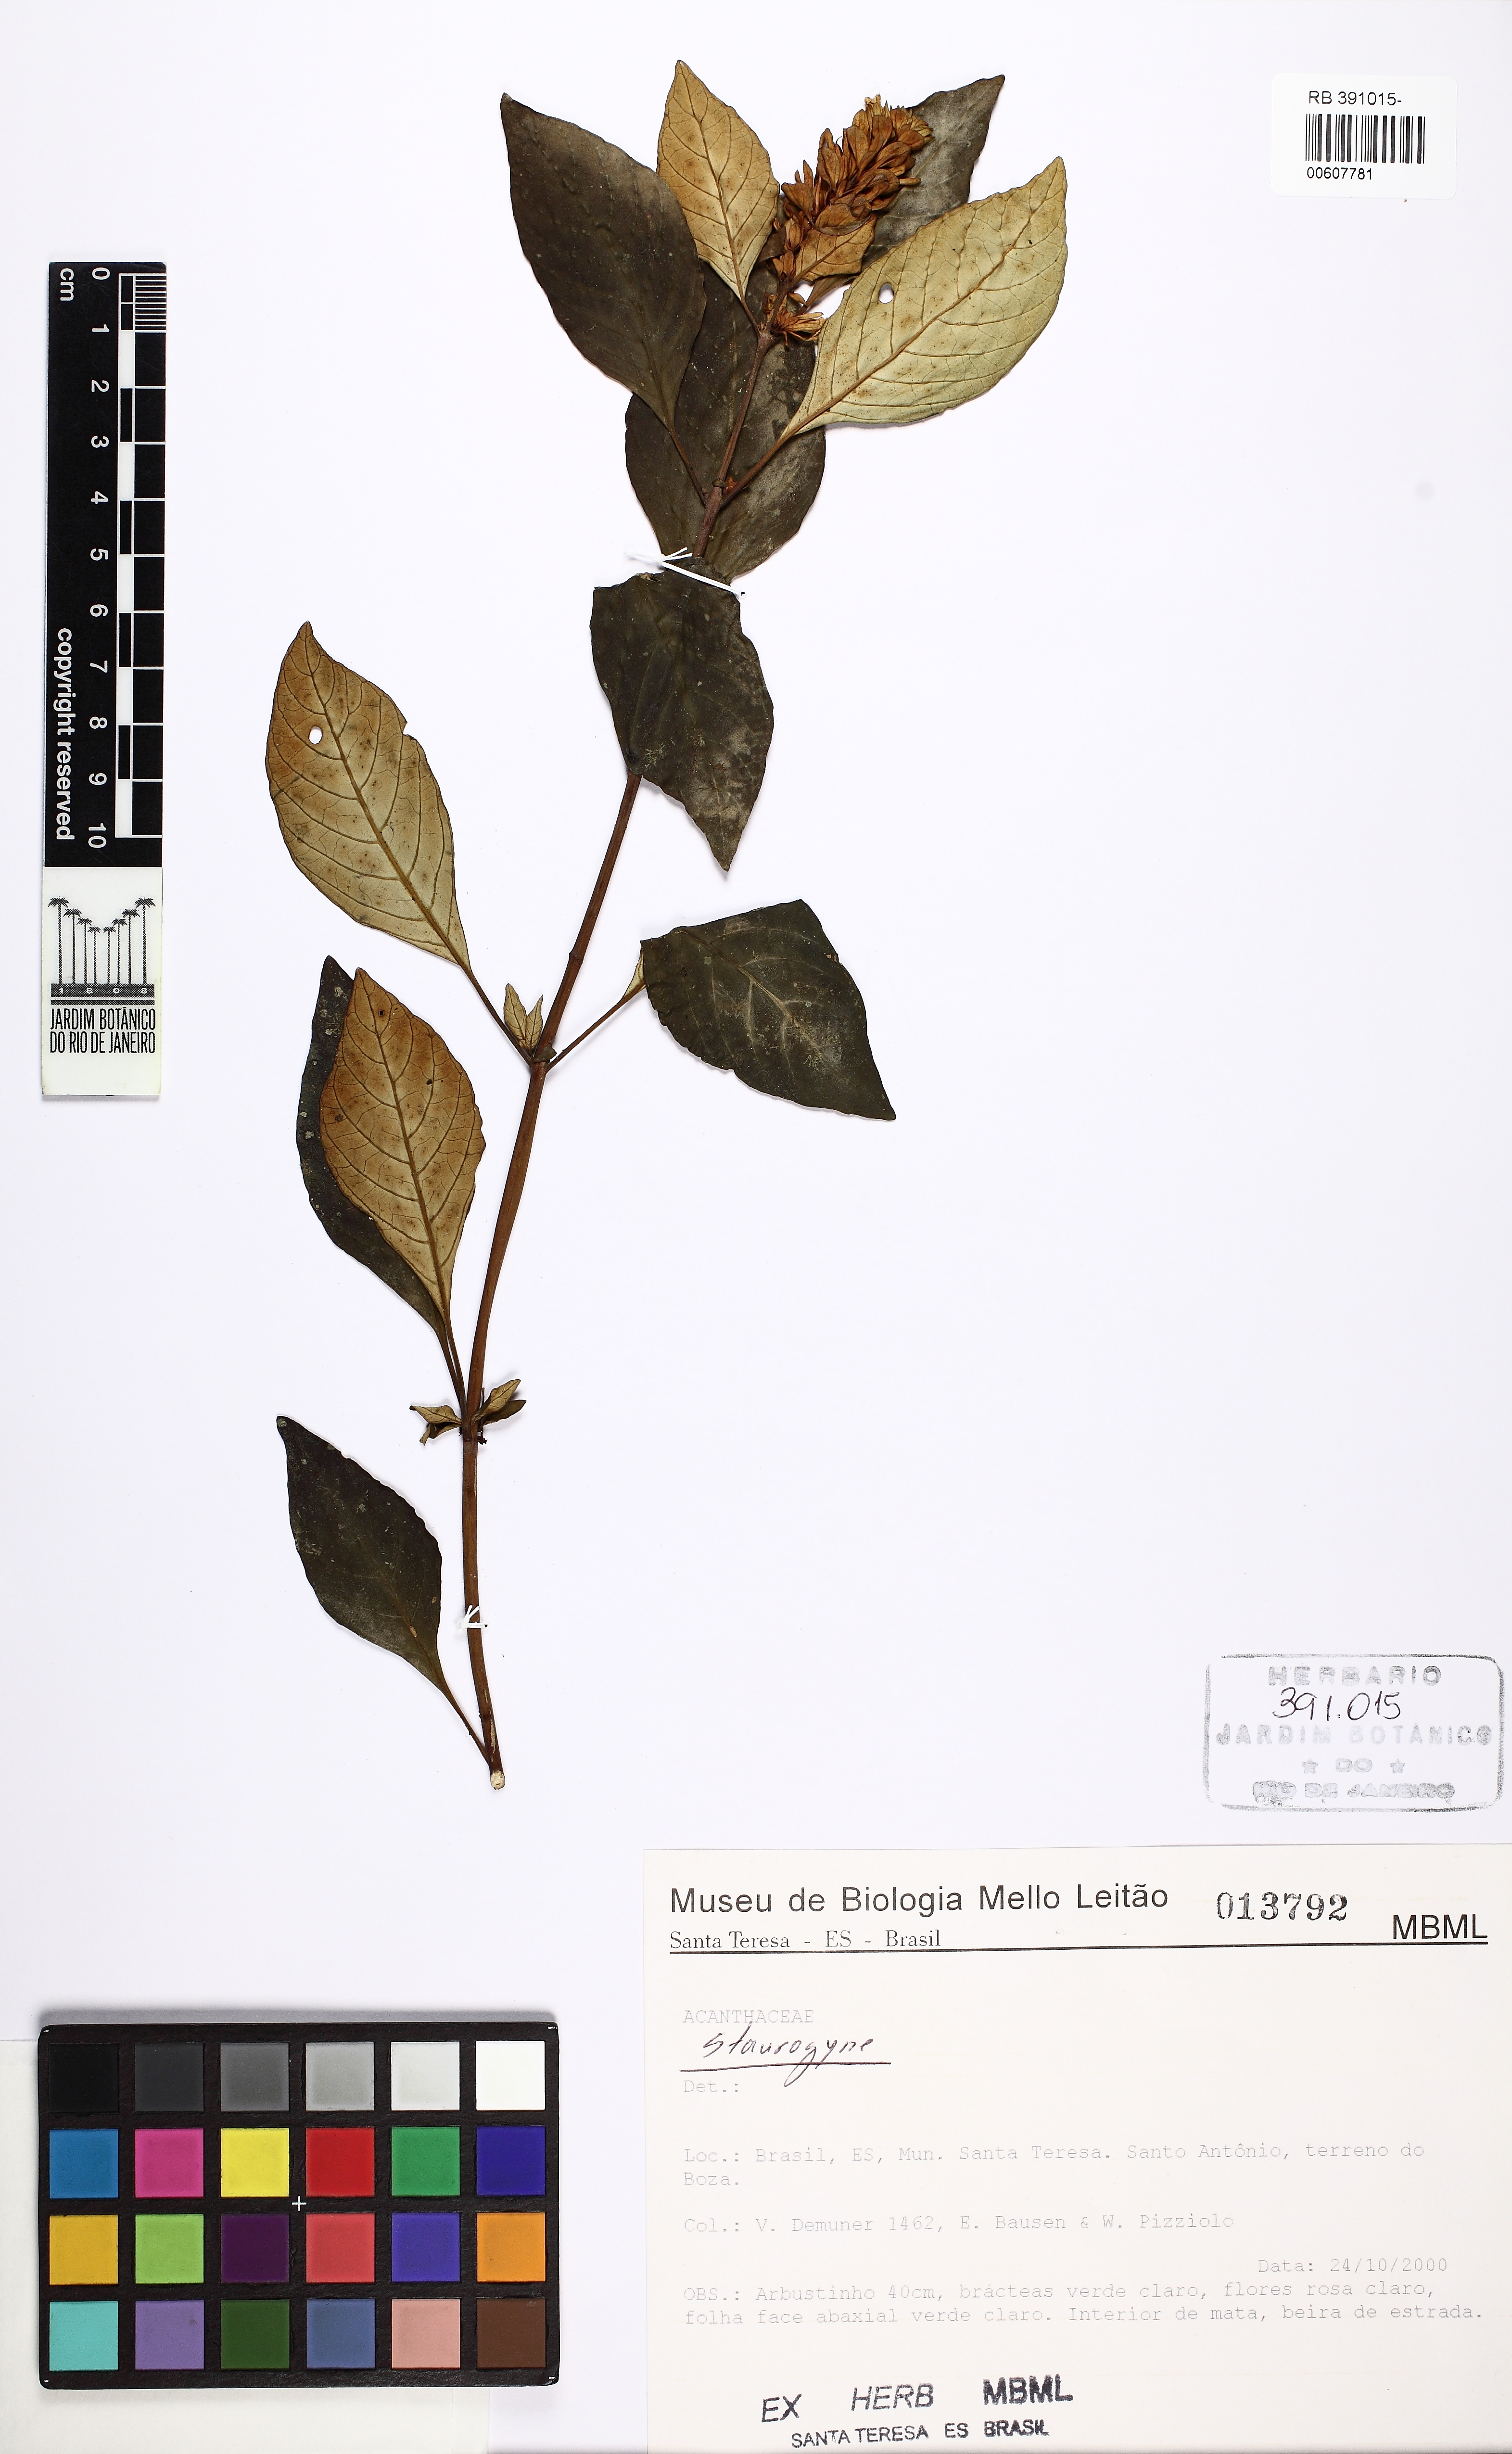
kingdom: Plantae
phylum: Tracheophyta
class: Magnoliopsida
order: Lamiales
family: Acanthaceae
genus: Staurogyne
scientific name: Staurogyne
